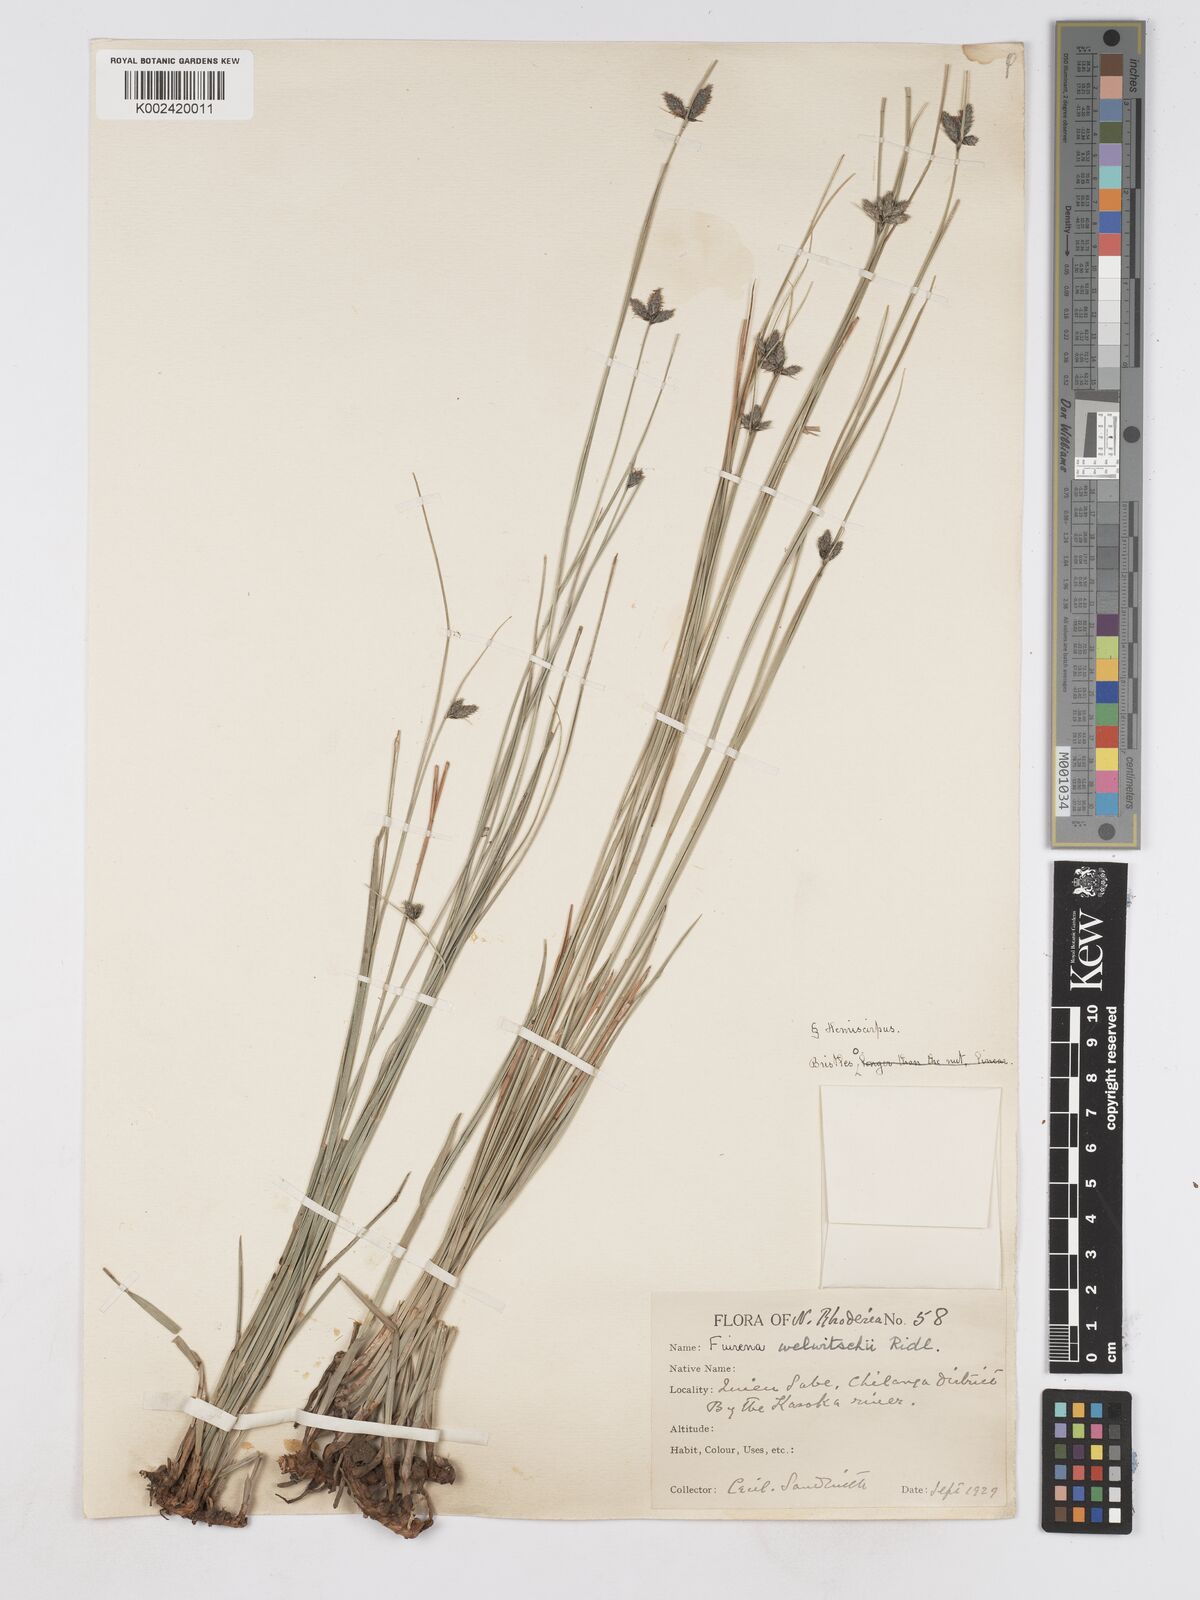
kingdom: Plantae
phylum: Tracheophyta
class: Liliopsida
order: Poales
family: Cyperaceae
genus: Fuirena
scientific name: Fuirena coerulescens
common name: Blue umbrella-sedge
